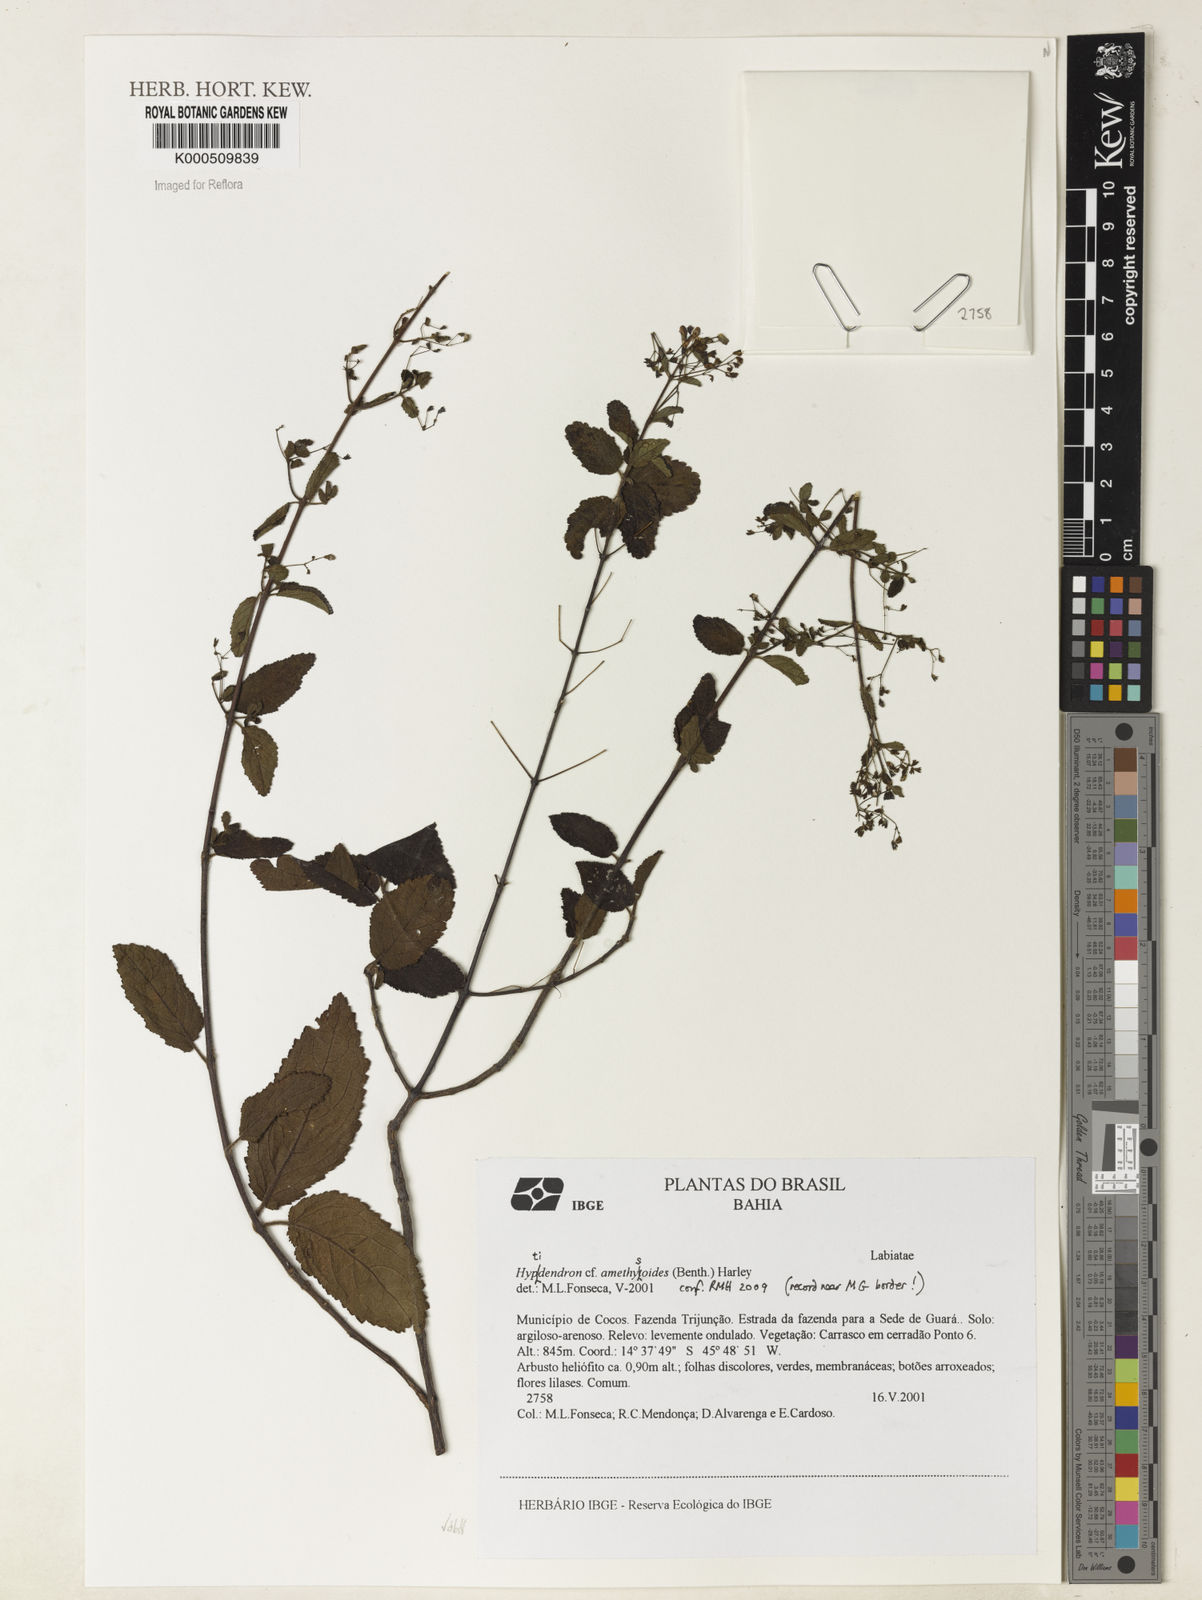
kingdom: Plantae
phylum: Tracheophyta
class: Magnoliopsida
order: Lamiales
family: Lamiaceae
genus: Hyptidendron
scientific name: Hyptidendron amethystoides
